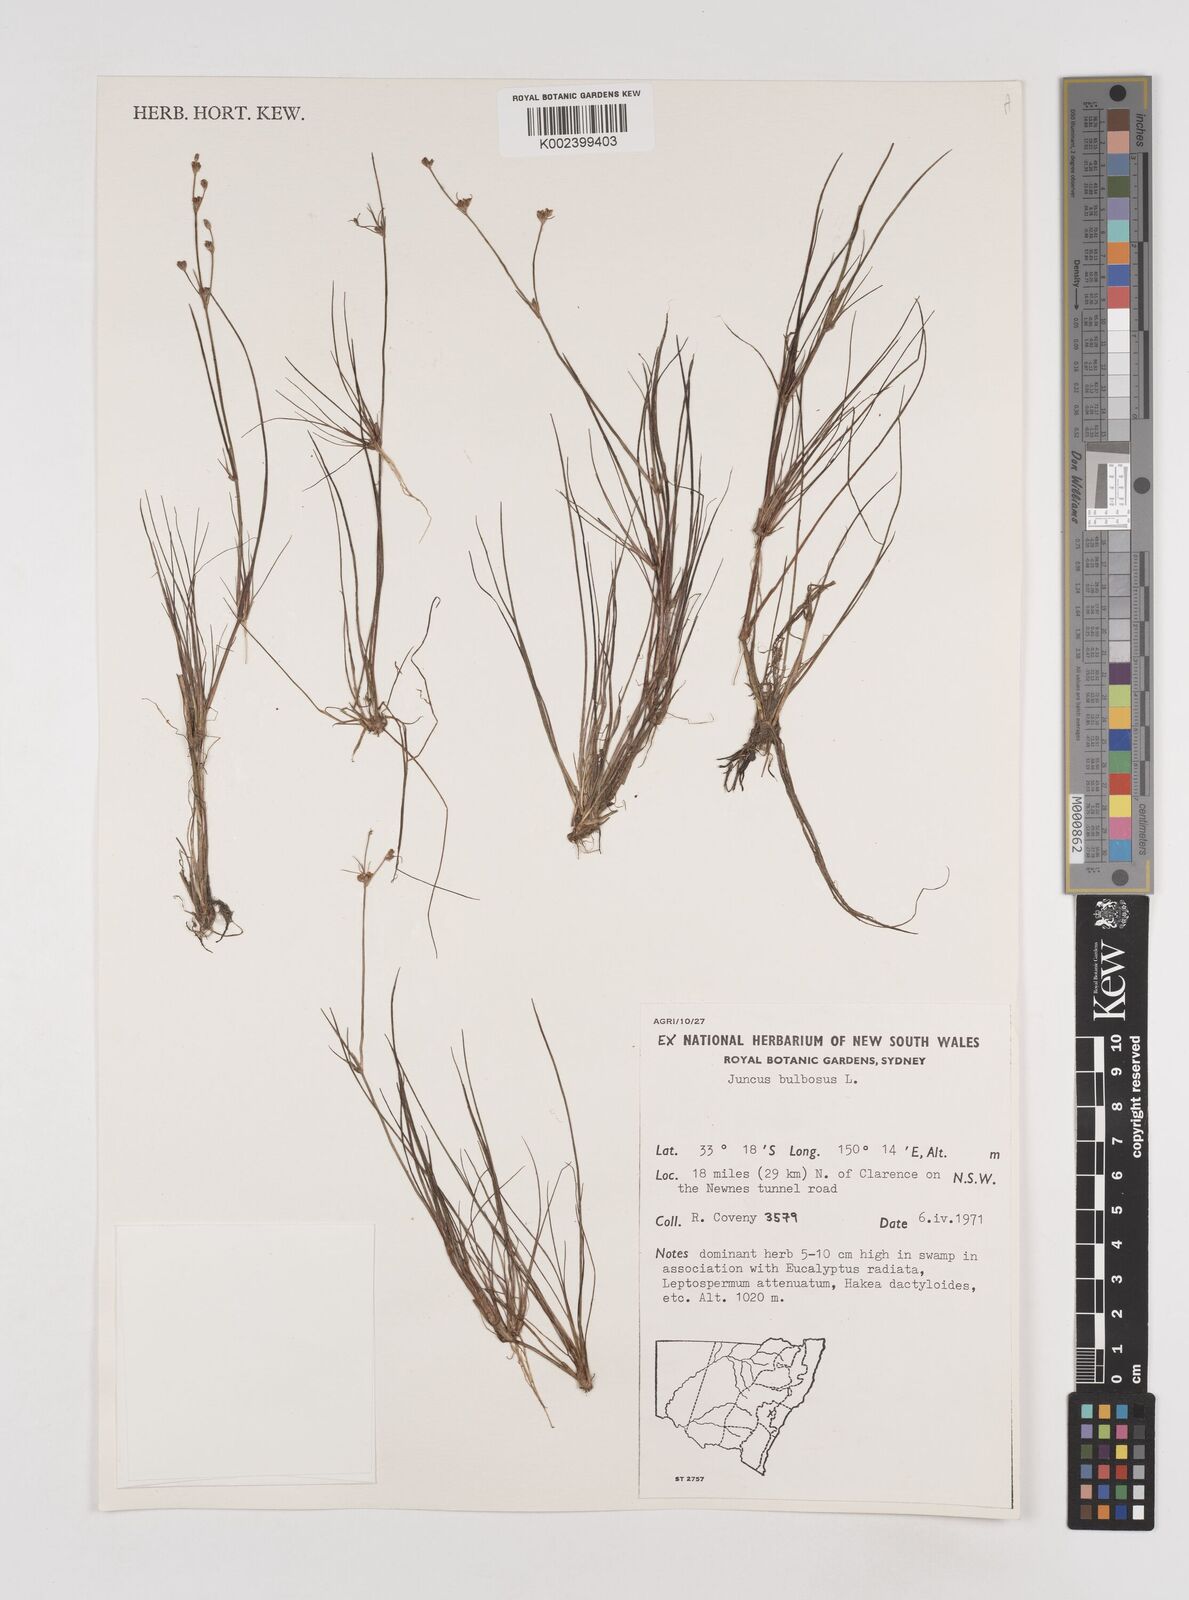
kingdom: Plantae
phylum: Tracheophyta
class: Liliopsida
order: Poales
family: Juncaceae
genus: Juncus
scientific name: Juncus bulbosus
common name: Bulbous rush
